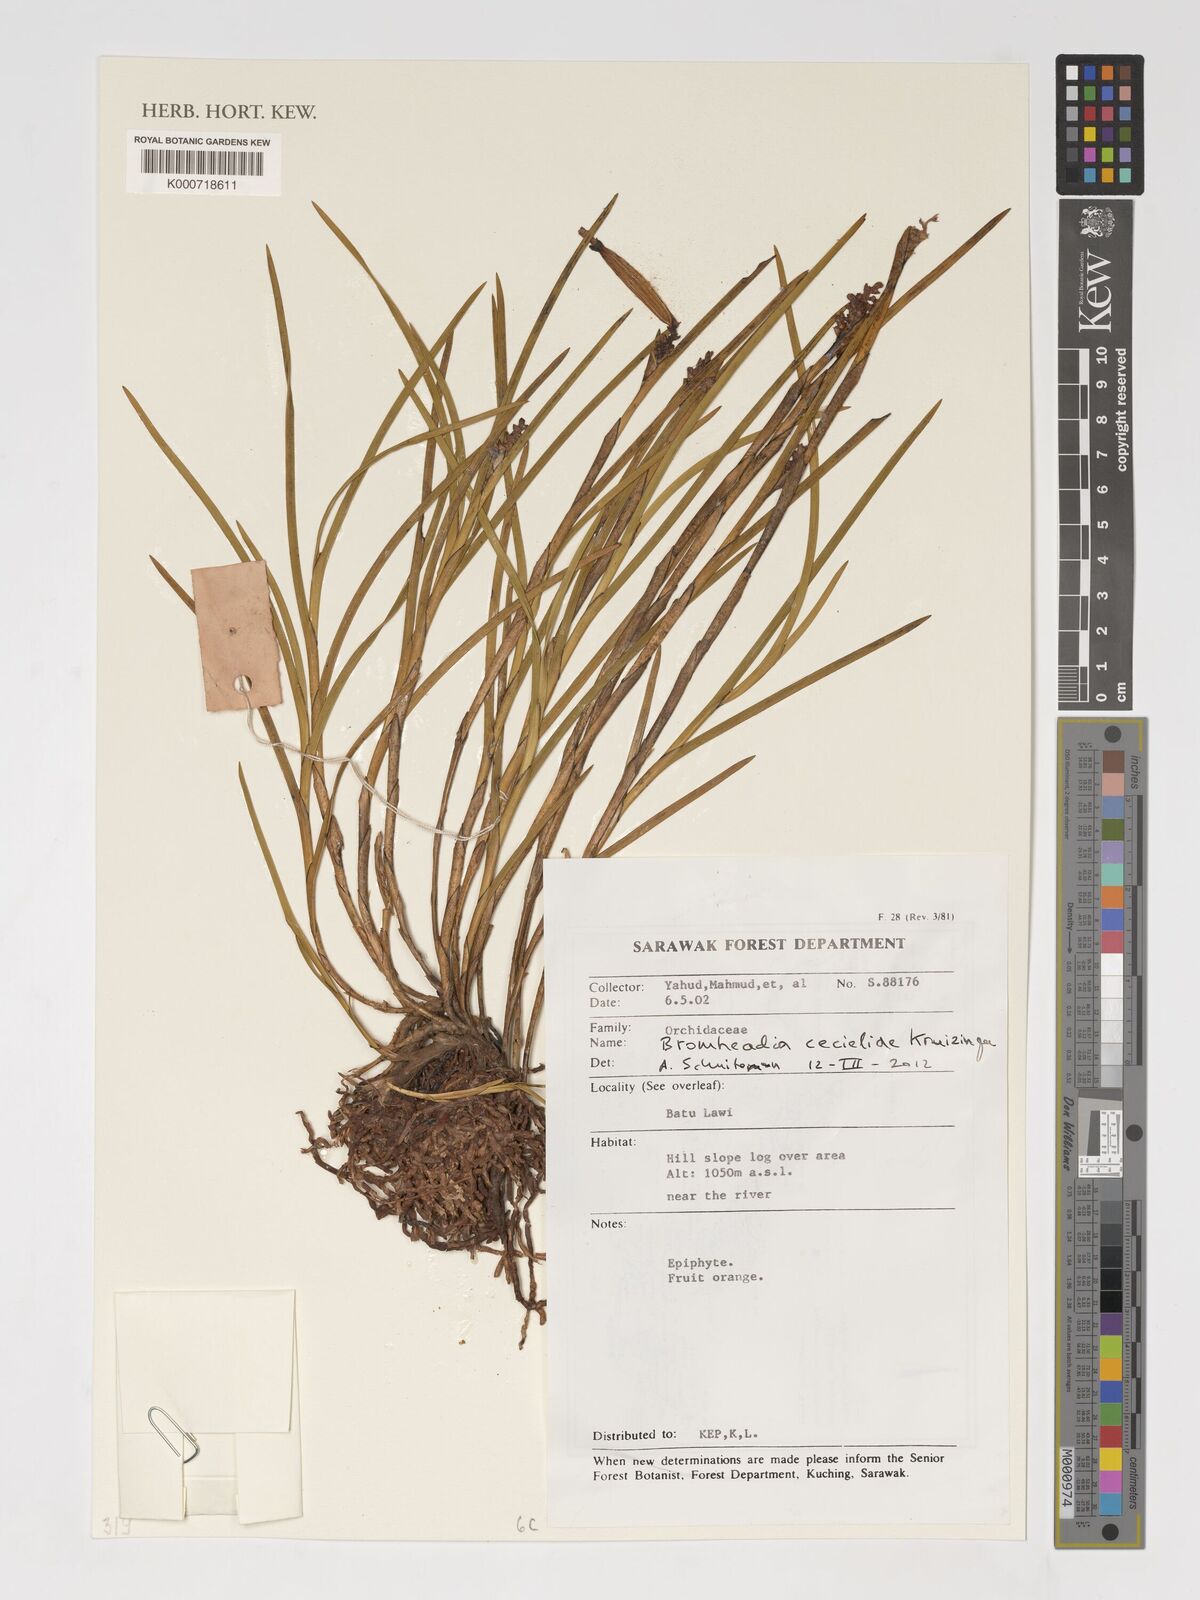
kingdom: Plantae
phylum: Tracheophyta
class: Liliopsida
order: Asparagales
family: Orchidaceae
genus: Bromheadia
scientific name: Bromheadia cecieliae
